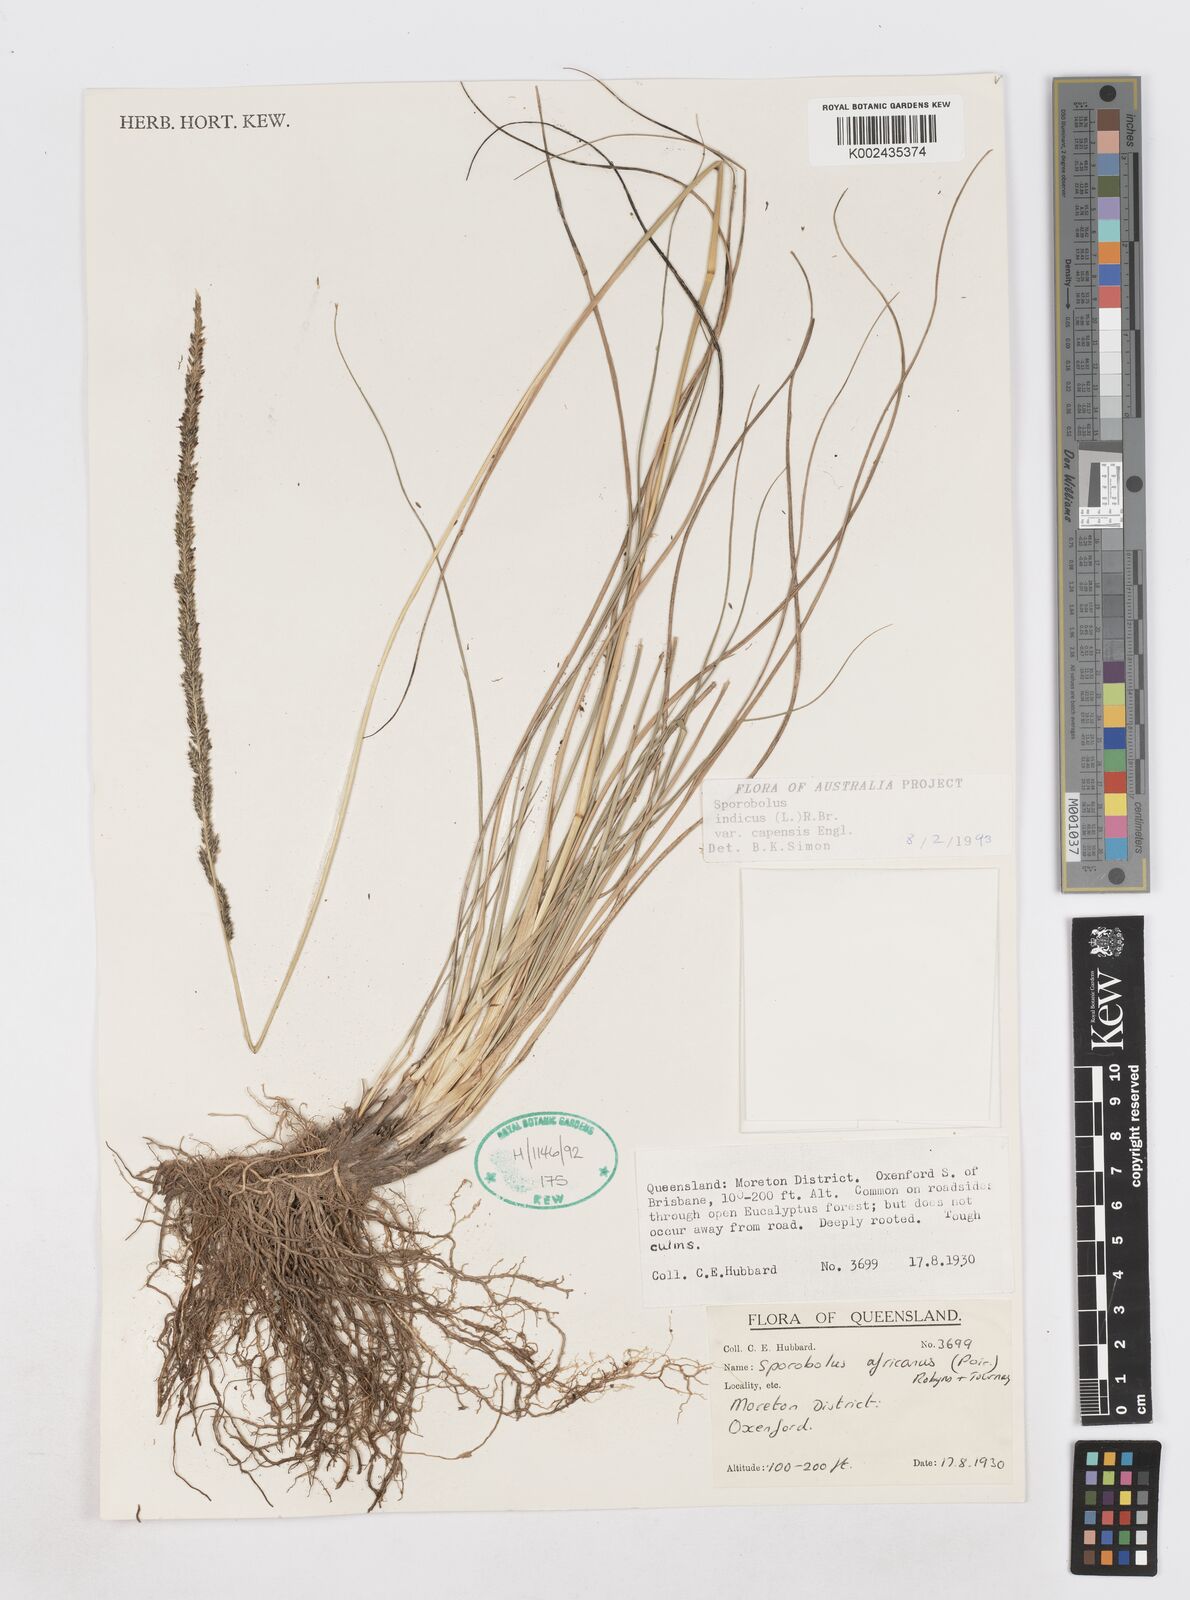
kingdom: Plantae
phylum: Tracheophyta
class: Liliopsida
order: Poales
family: Poaceae
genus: Sporobolus
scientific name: Sporobolus africanus
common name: African dropseed
